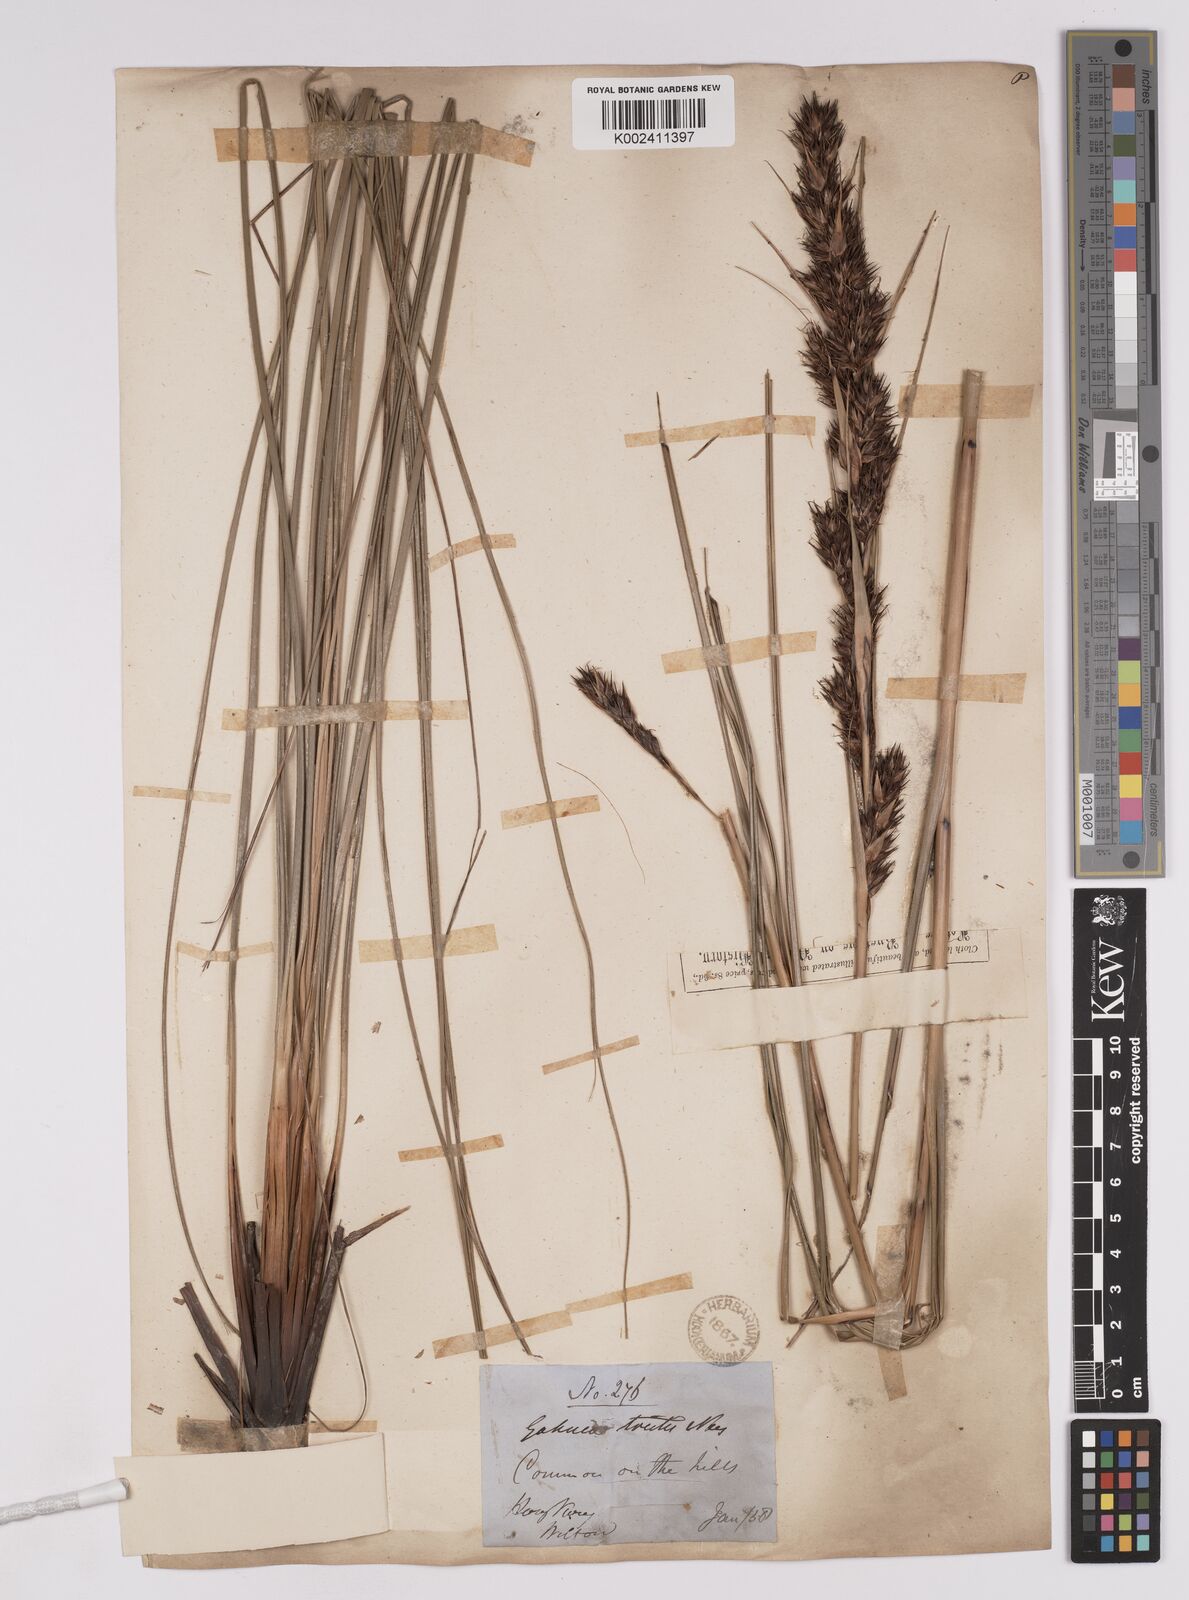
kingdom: Plantae
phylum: Tracheophyta
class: Liliopsida
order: Poales
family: Cyperaceae
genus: Gahnia
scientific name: Gahnia tristis
